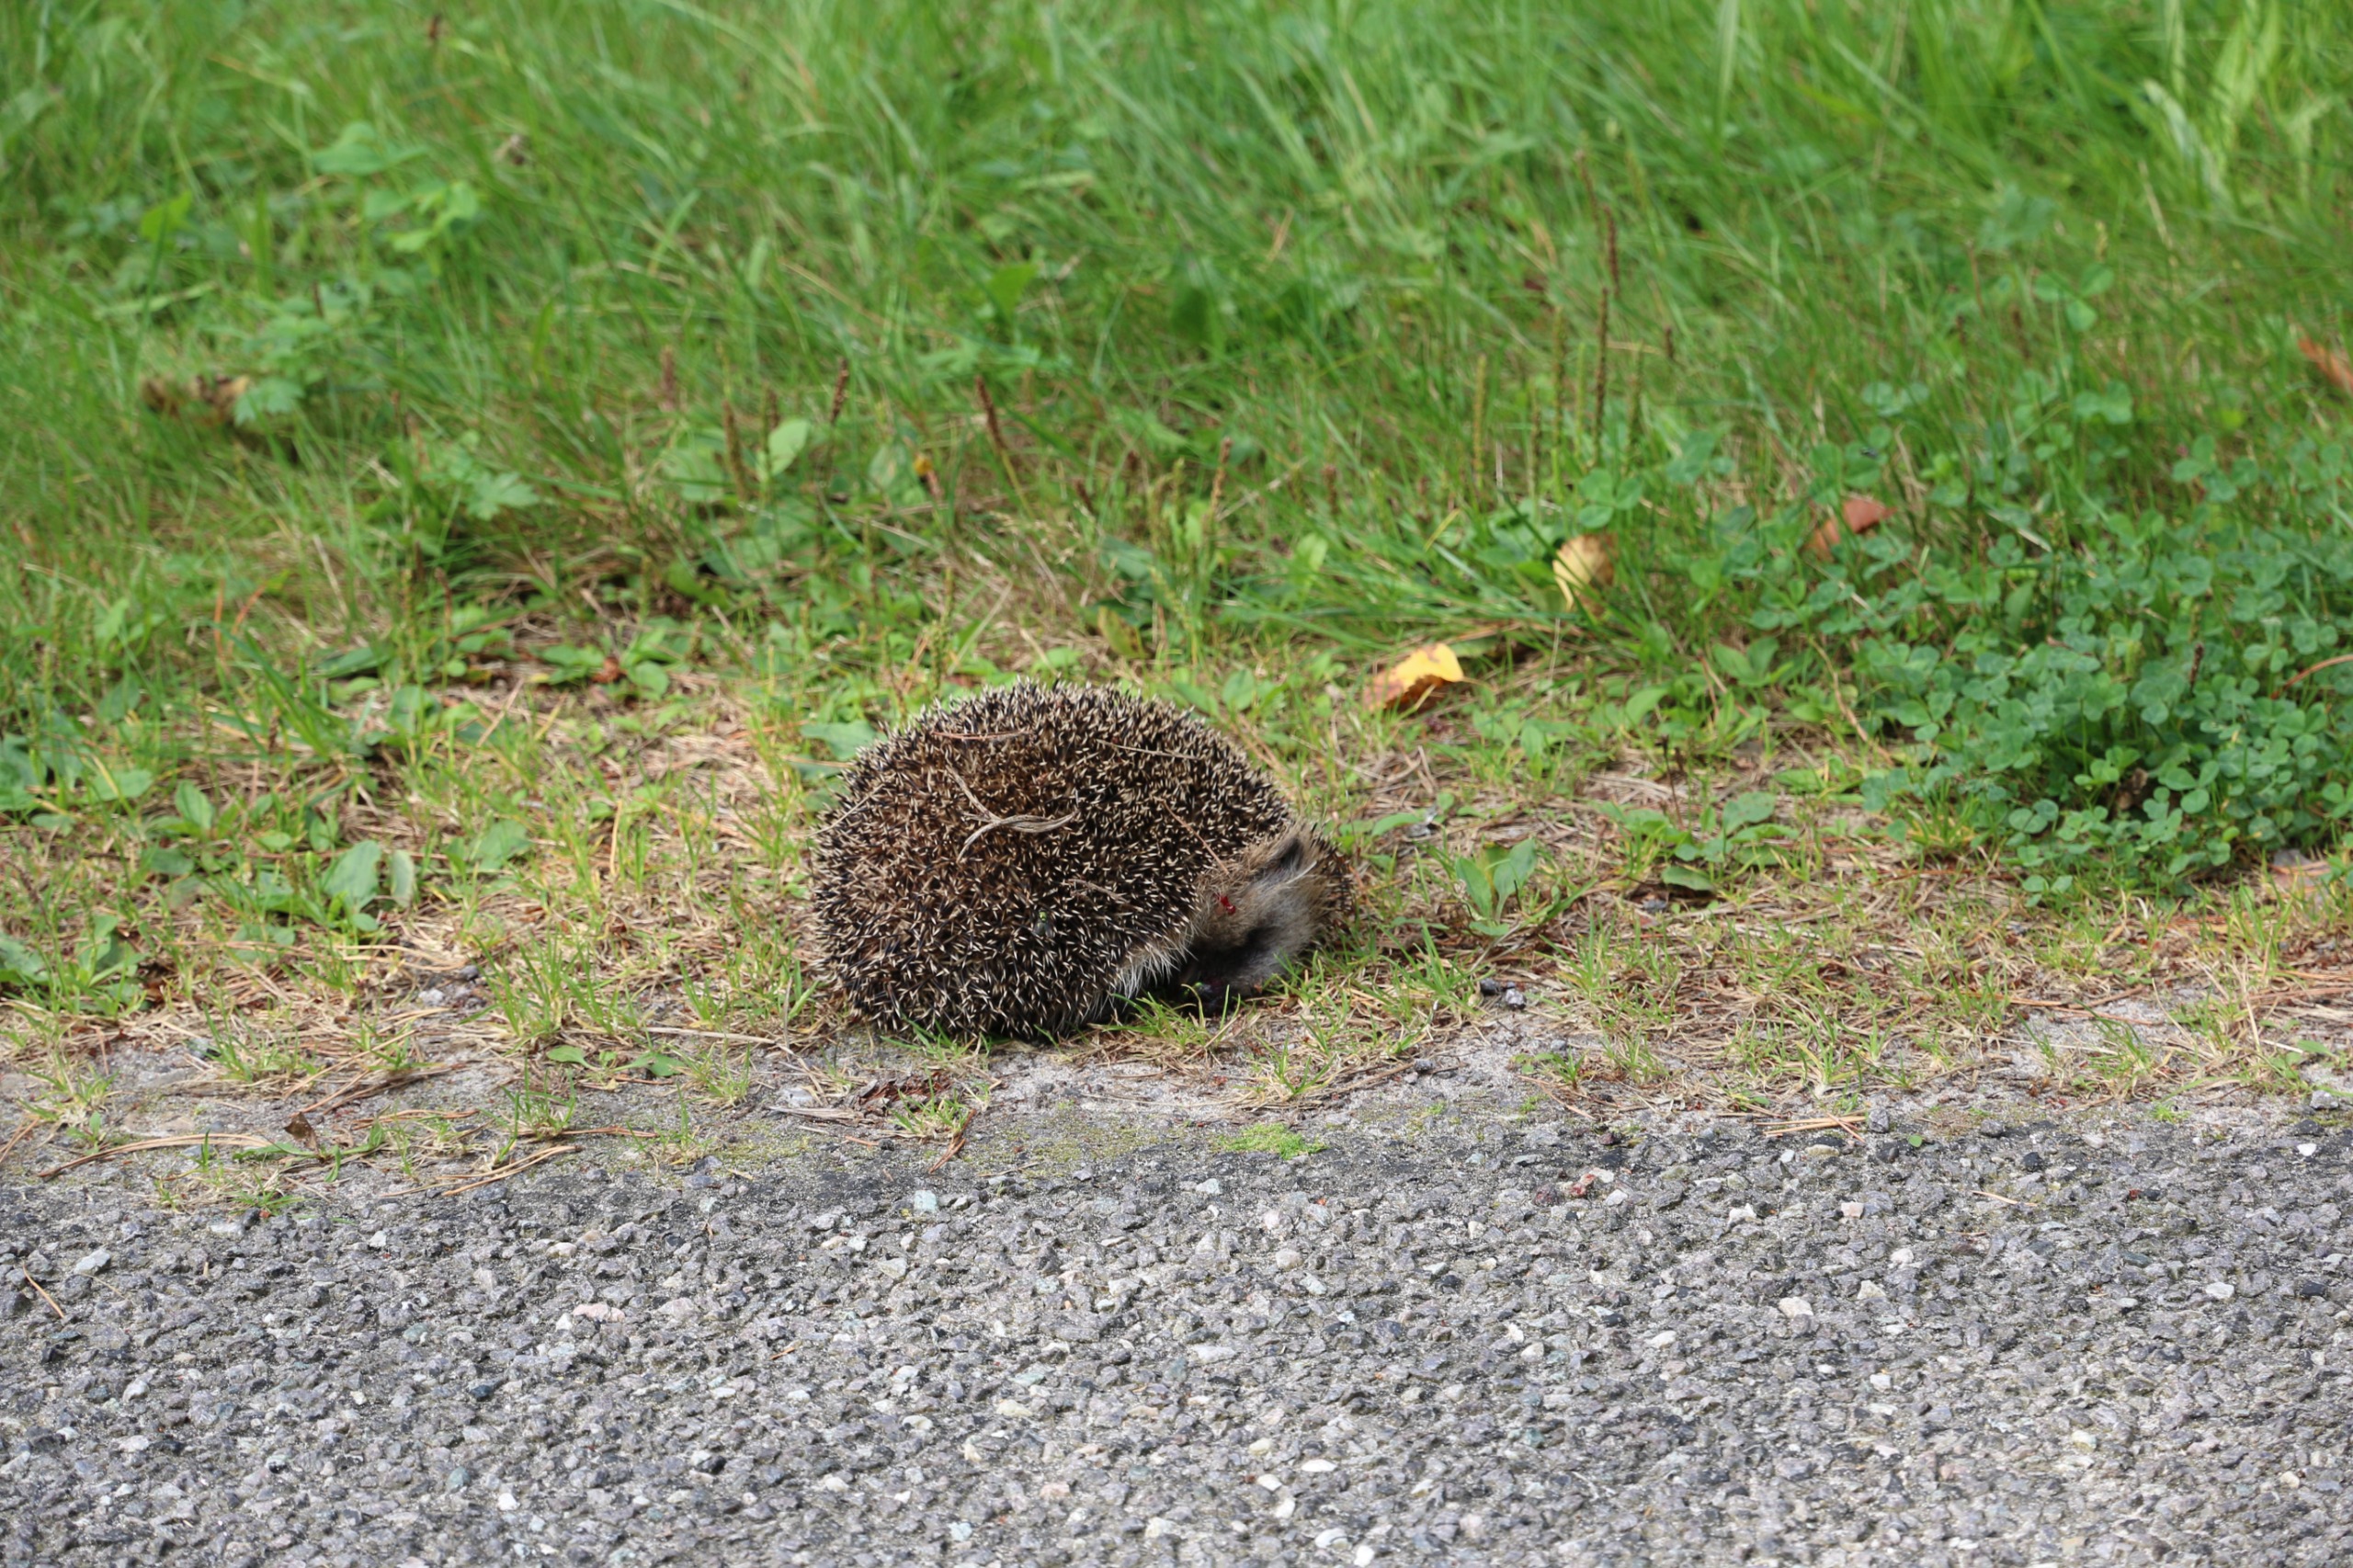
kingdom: Animalia
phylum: Chordata
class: Mammalia
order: Erinaceomorpha
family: Erinaceidae
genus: Erinaceus
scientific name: Erinaceus europaeus
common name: Pindsvin
